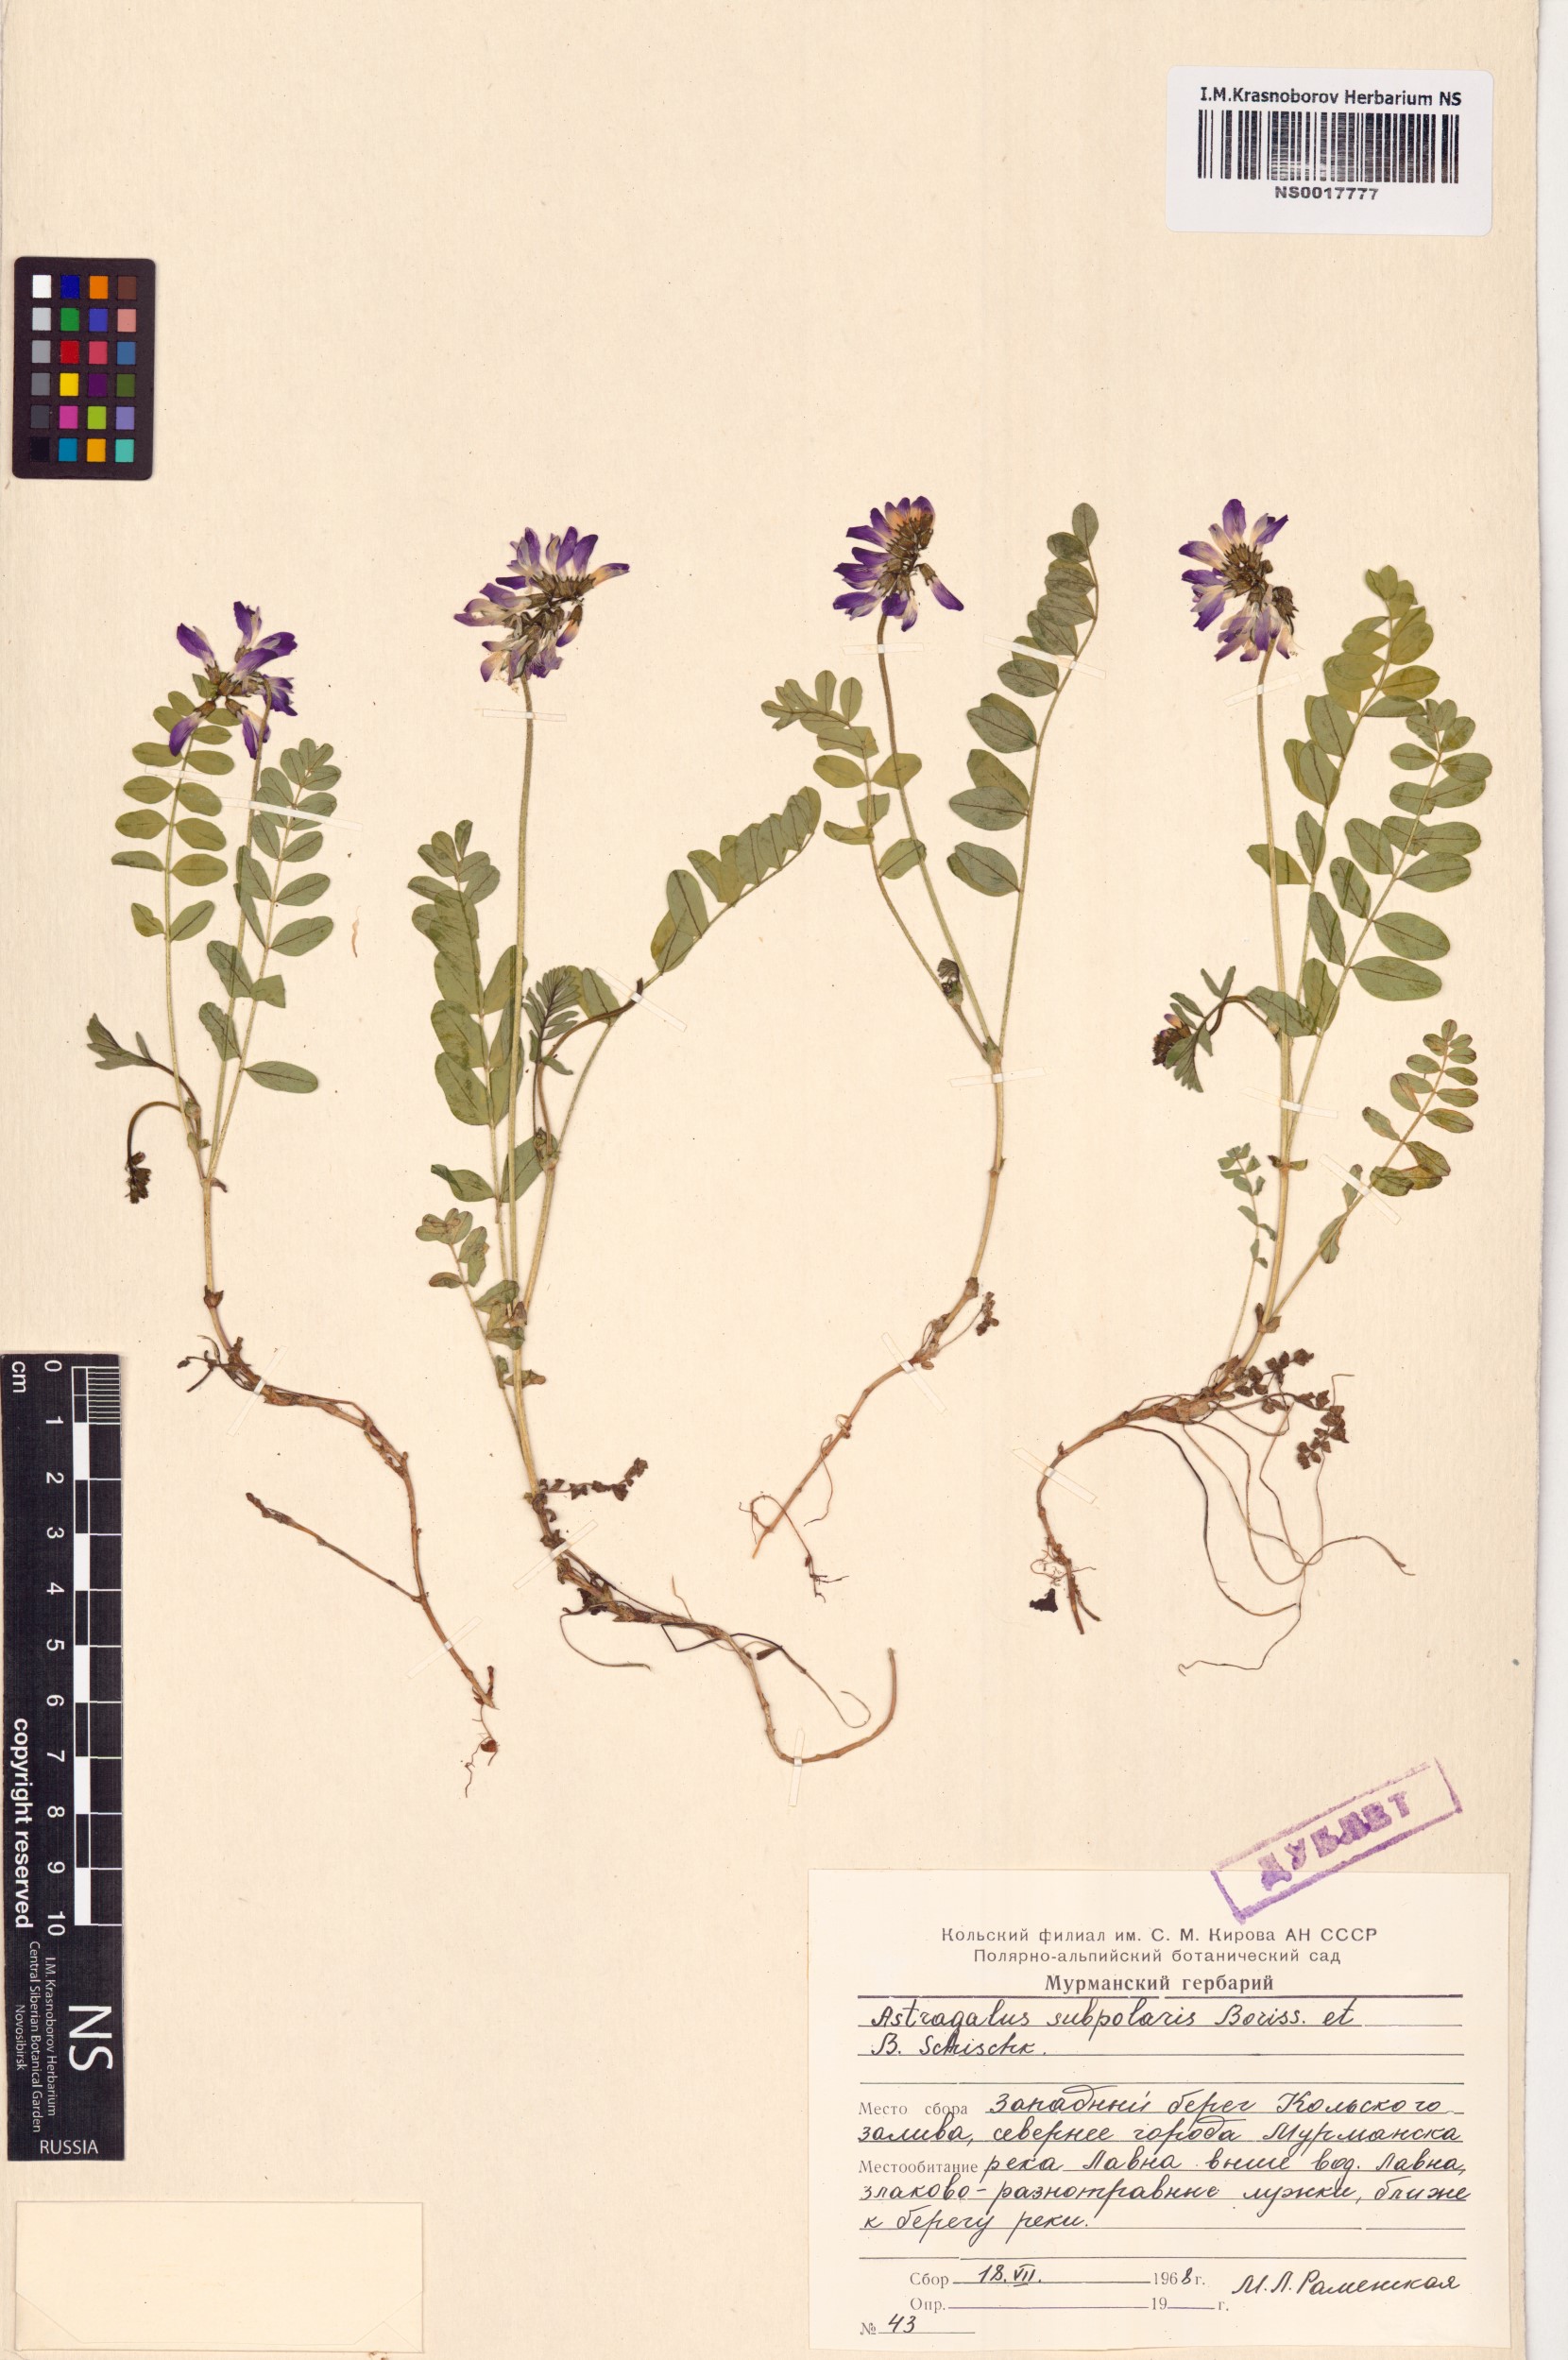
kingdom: Plantae
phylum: Tracheophyta
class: Magnoliopsida
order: Fabales
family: Fabaceae
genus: Astragalus
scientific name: Astragalus norvegicus
